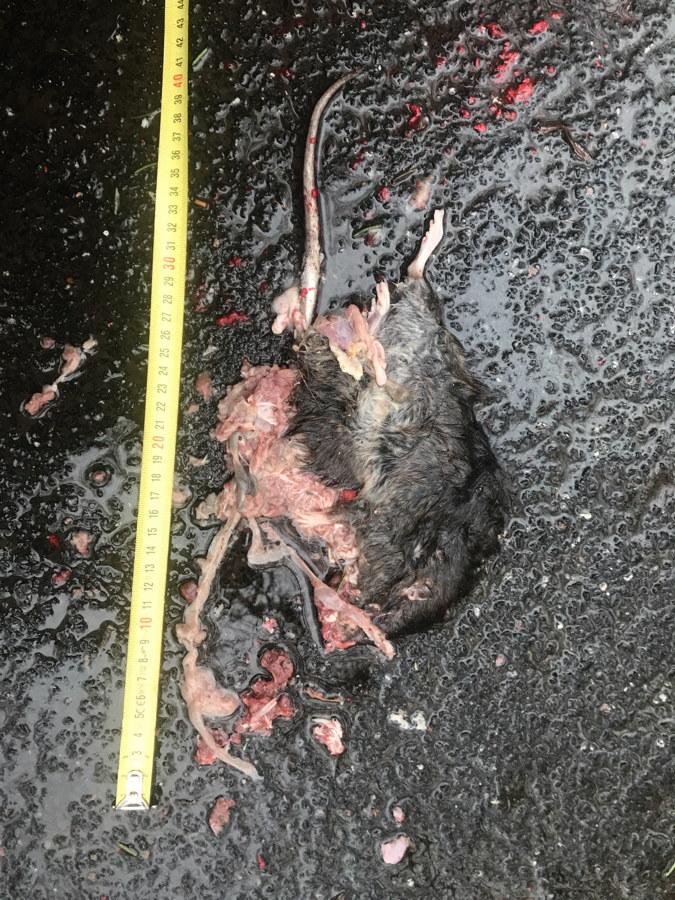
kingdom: Animalia
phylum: Chordata
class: Mammalia
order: Rodentia
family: Muridae
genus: Rattus
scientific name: Rattus
